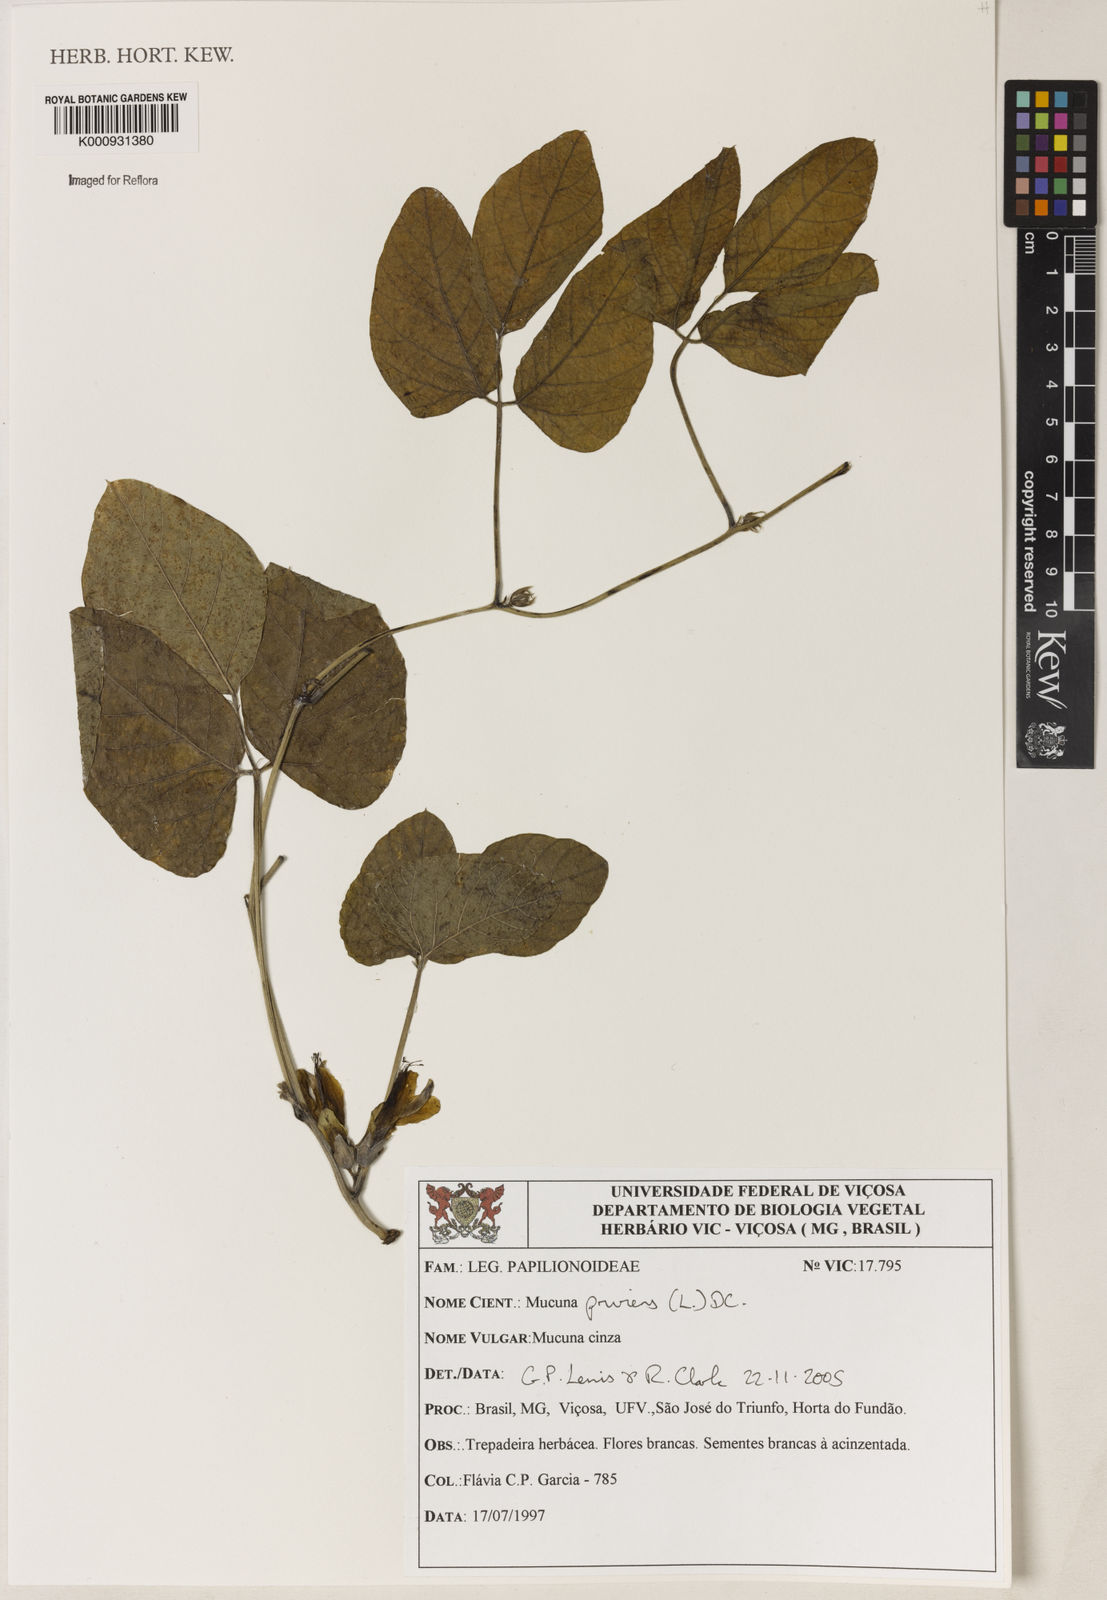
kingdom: Plantae
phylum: Tracheophyta
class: Magnoliopsida
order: Fabales
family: Fabaceae
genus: Mucuna
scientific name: Mucuna pruriens
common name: Cow-itch
